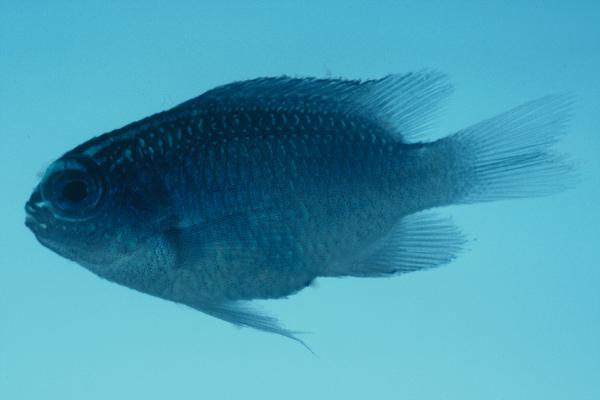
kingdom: Animalia
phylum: Chordata
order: Perciformes
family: Pomacentridae
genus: Chrysiptera
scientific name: Chrysiptera glauca
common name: Grey demoiselle
